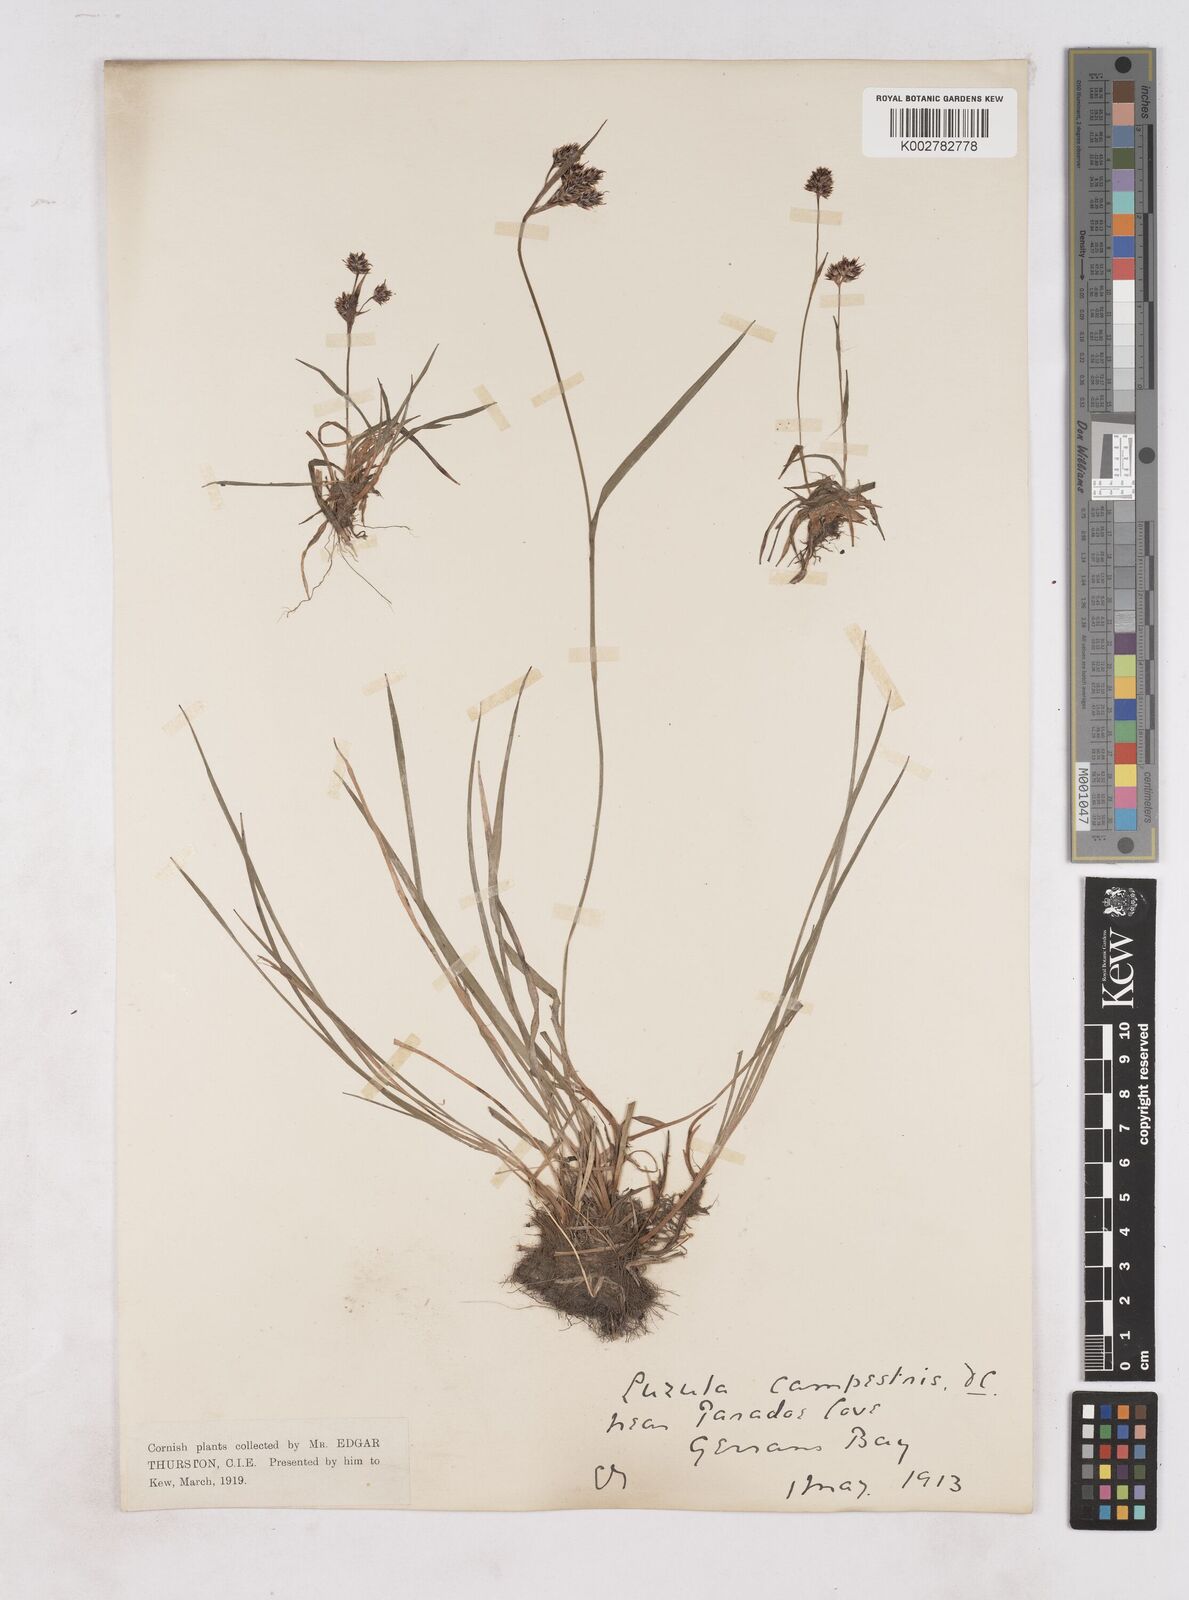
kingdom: Plantae
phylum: Tracheophyta
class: Liliopsida
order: Poales
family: Juncaceae
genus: Luzula
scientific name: Luzula campestris
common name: Field wood-rush
